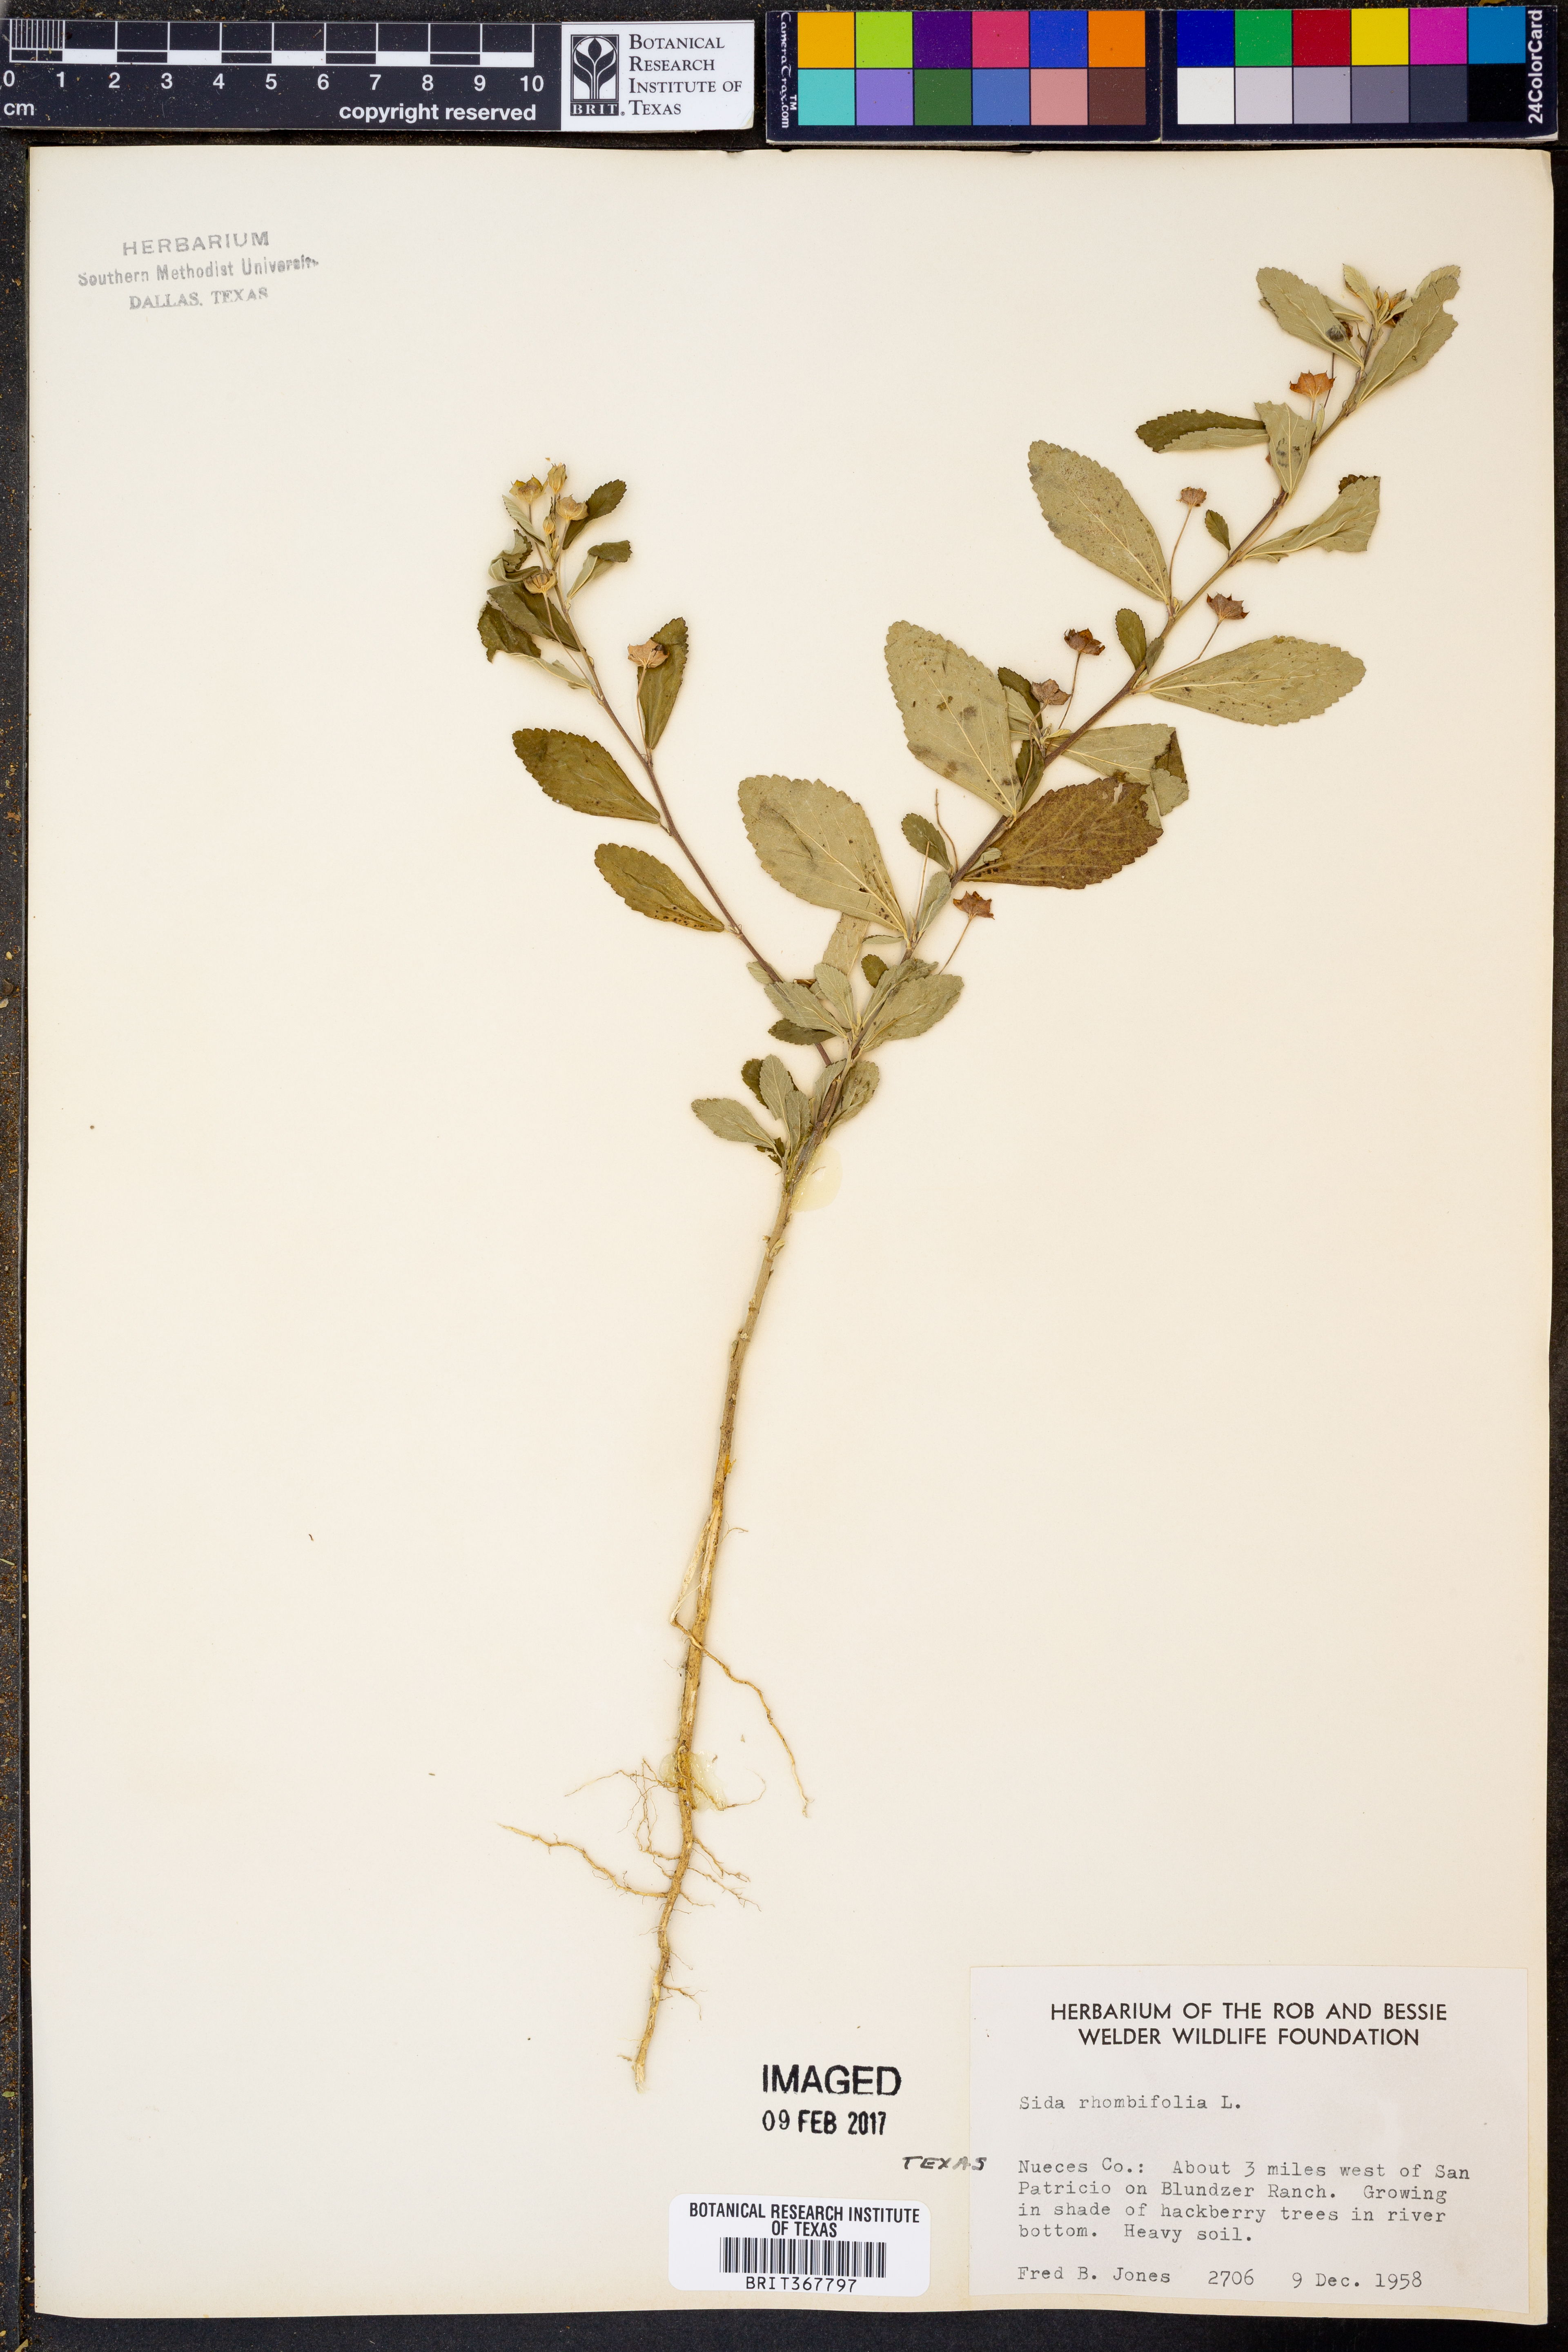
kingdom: Plantae
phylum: Tracheophyta
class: Magnoliopsida
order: Malvales
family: Malvaceae
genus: Sida
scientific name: Sida rhombifolia
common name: Queensland-hemp
